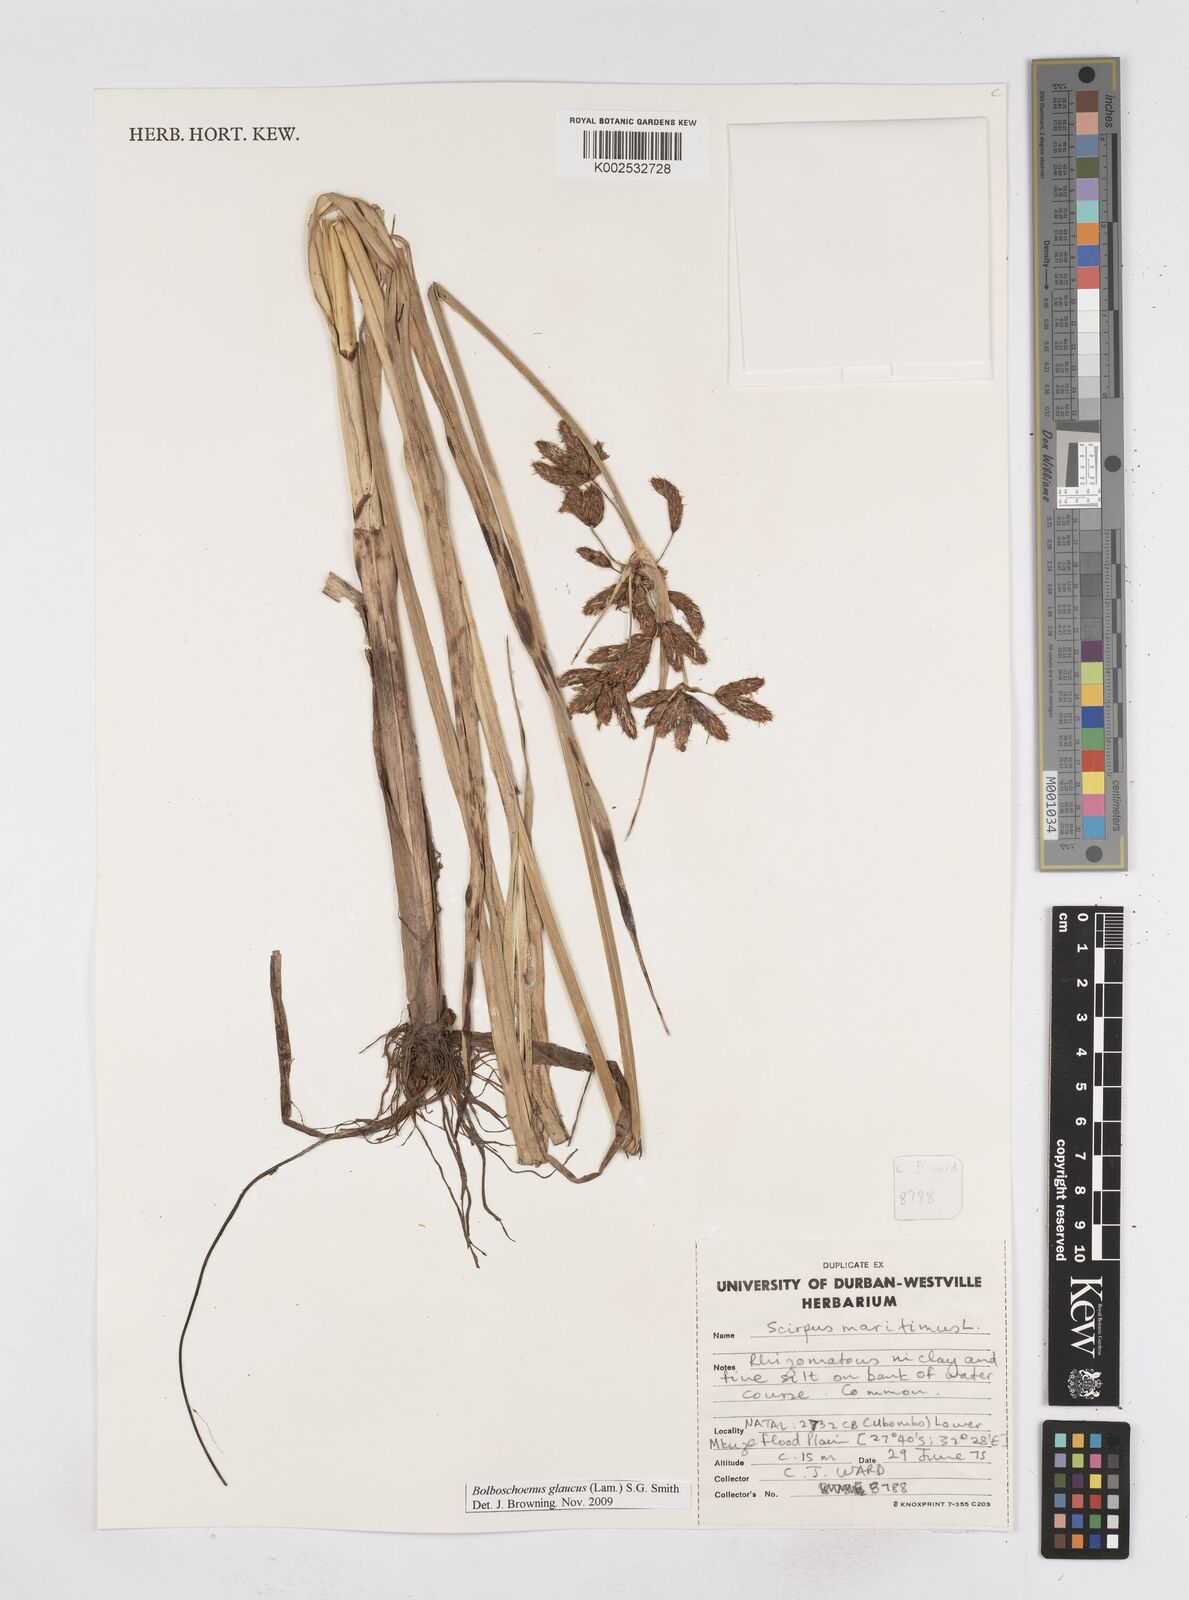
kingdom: Plantae
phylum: Tracheophyta
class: Liliopsida
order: Poales
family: Cyperaceae
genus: Bolboschoenus
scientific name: Bolboschoenus maritimus
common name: Sea club-rush
